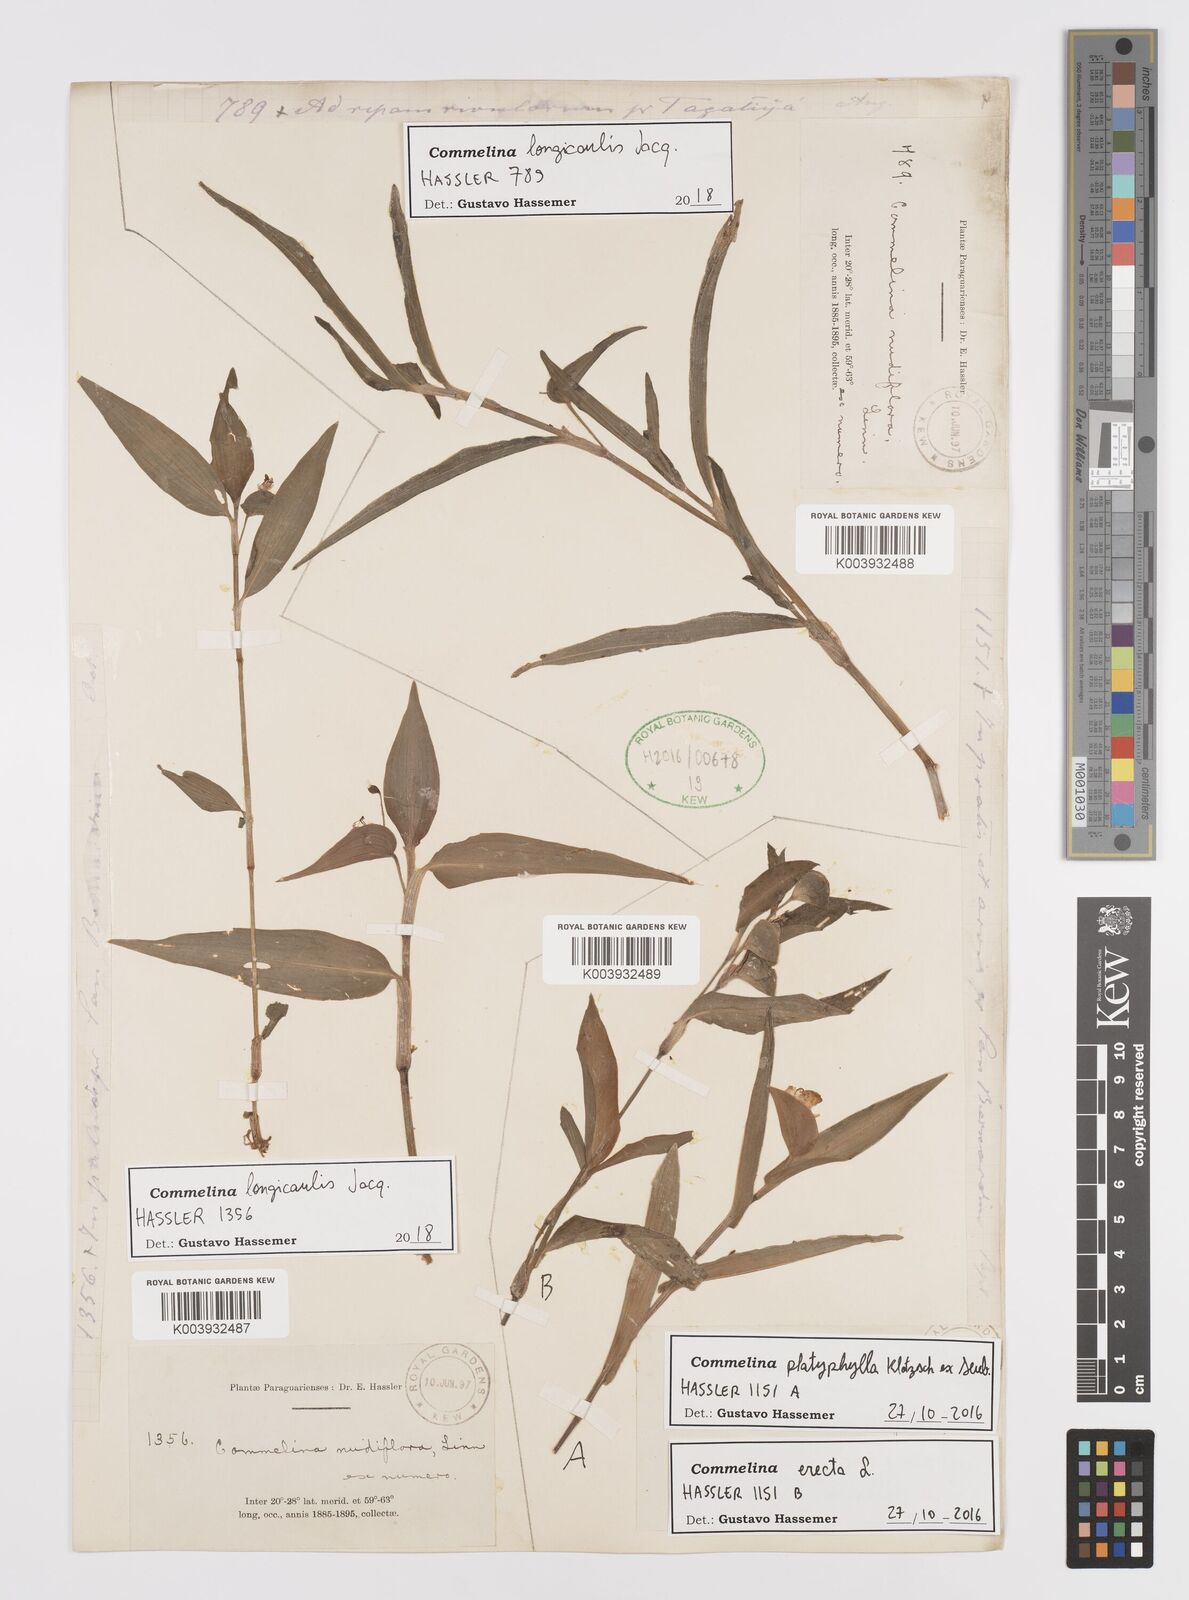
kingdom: Plantae
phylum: Tracheophyta
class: Liliopsida
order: Commelinales
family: Commelinaceae
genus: Commelina
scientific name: Commelina platyphylla
